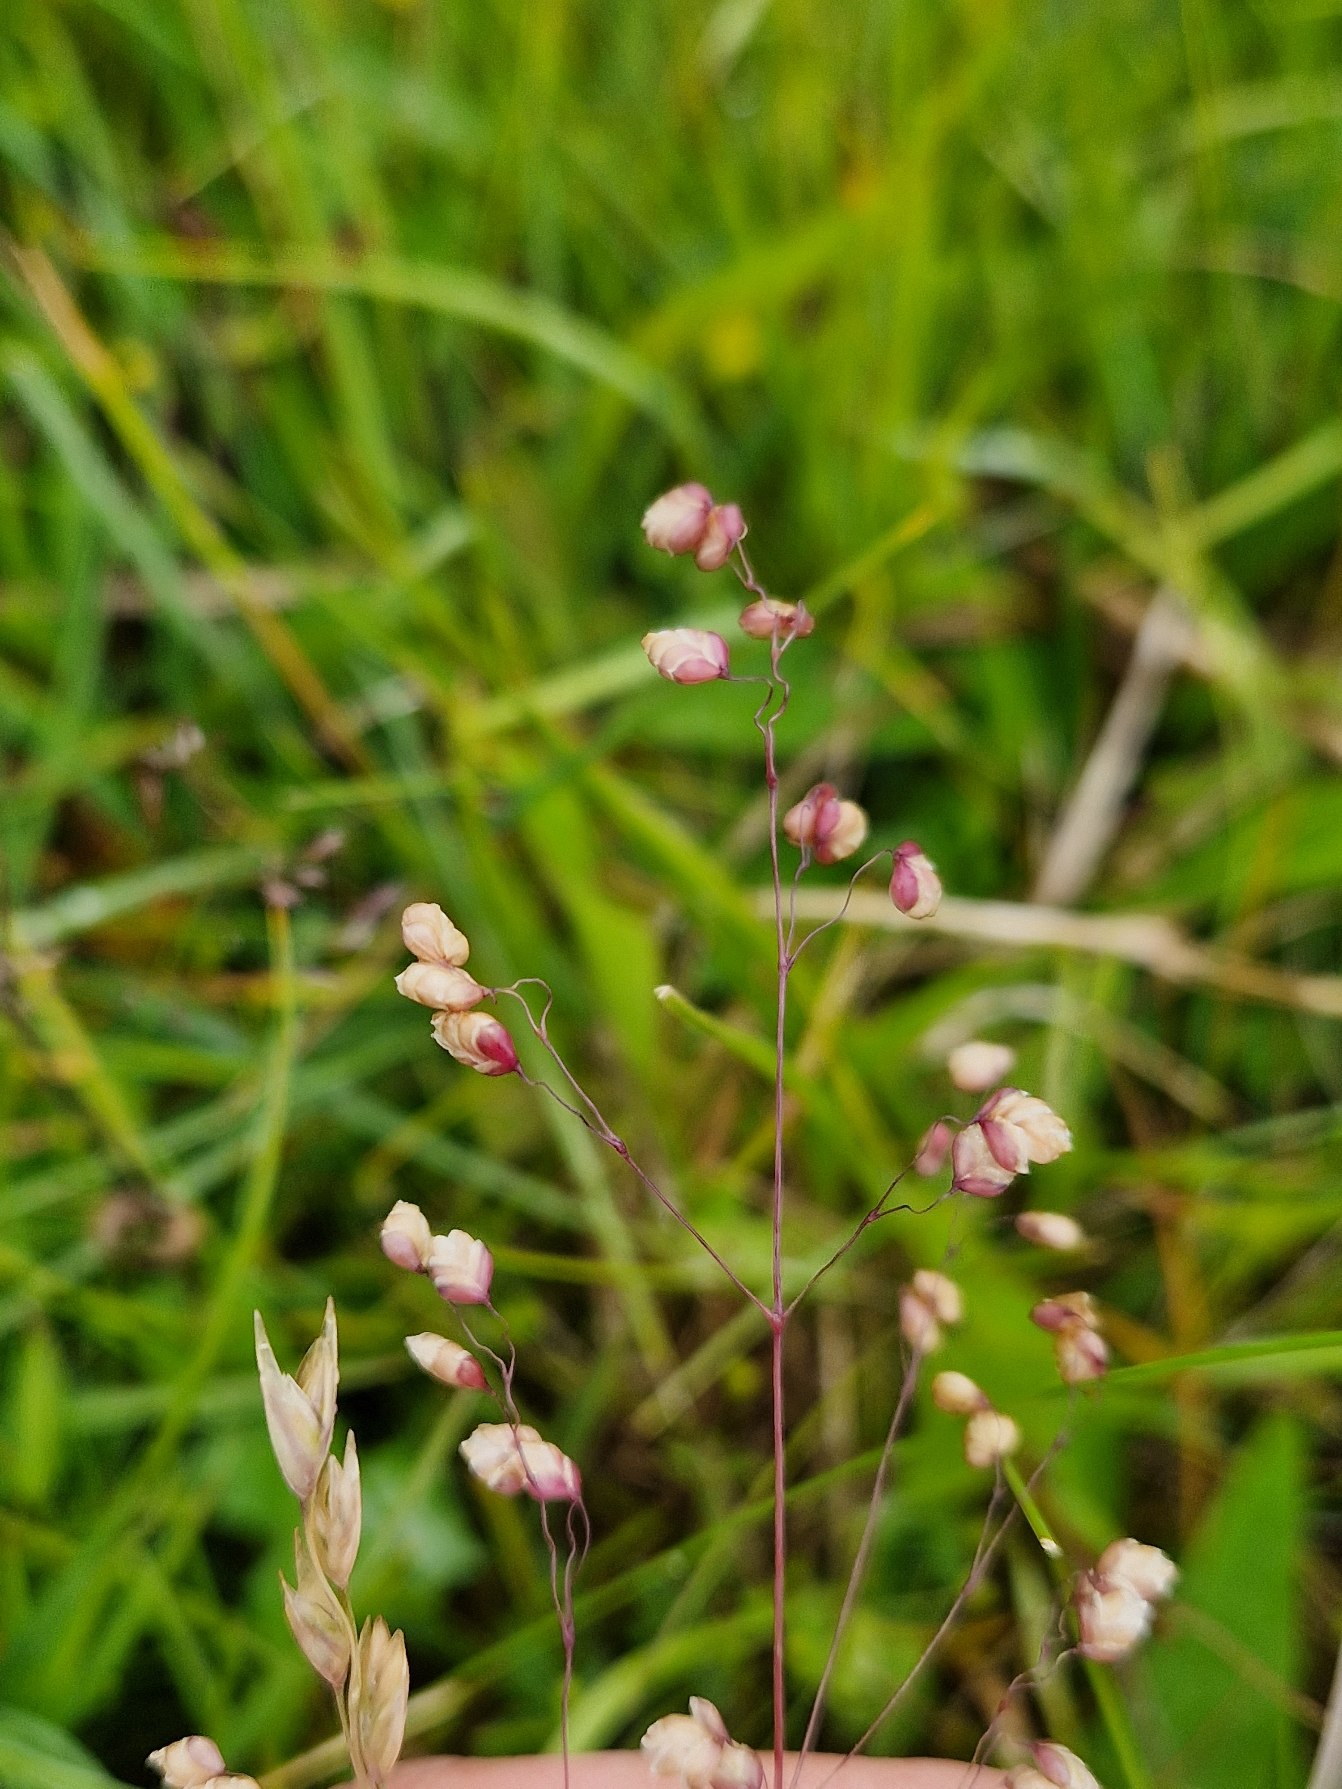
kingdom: Plantae
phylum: Tracheophyta
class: Liliopsida
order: Poales
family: Poaceae
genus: Briza
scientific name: Briza media
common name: Hjertegræs
